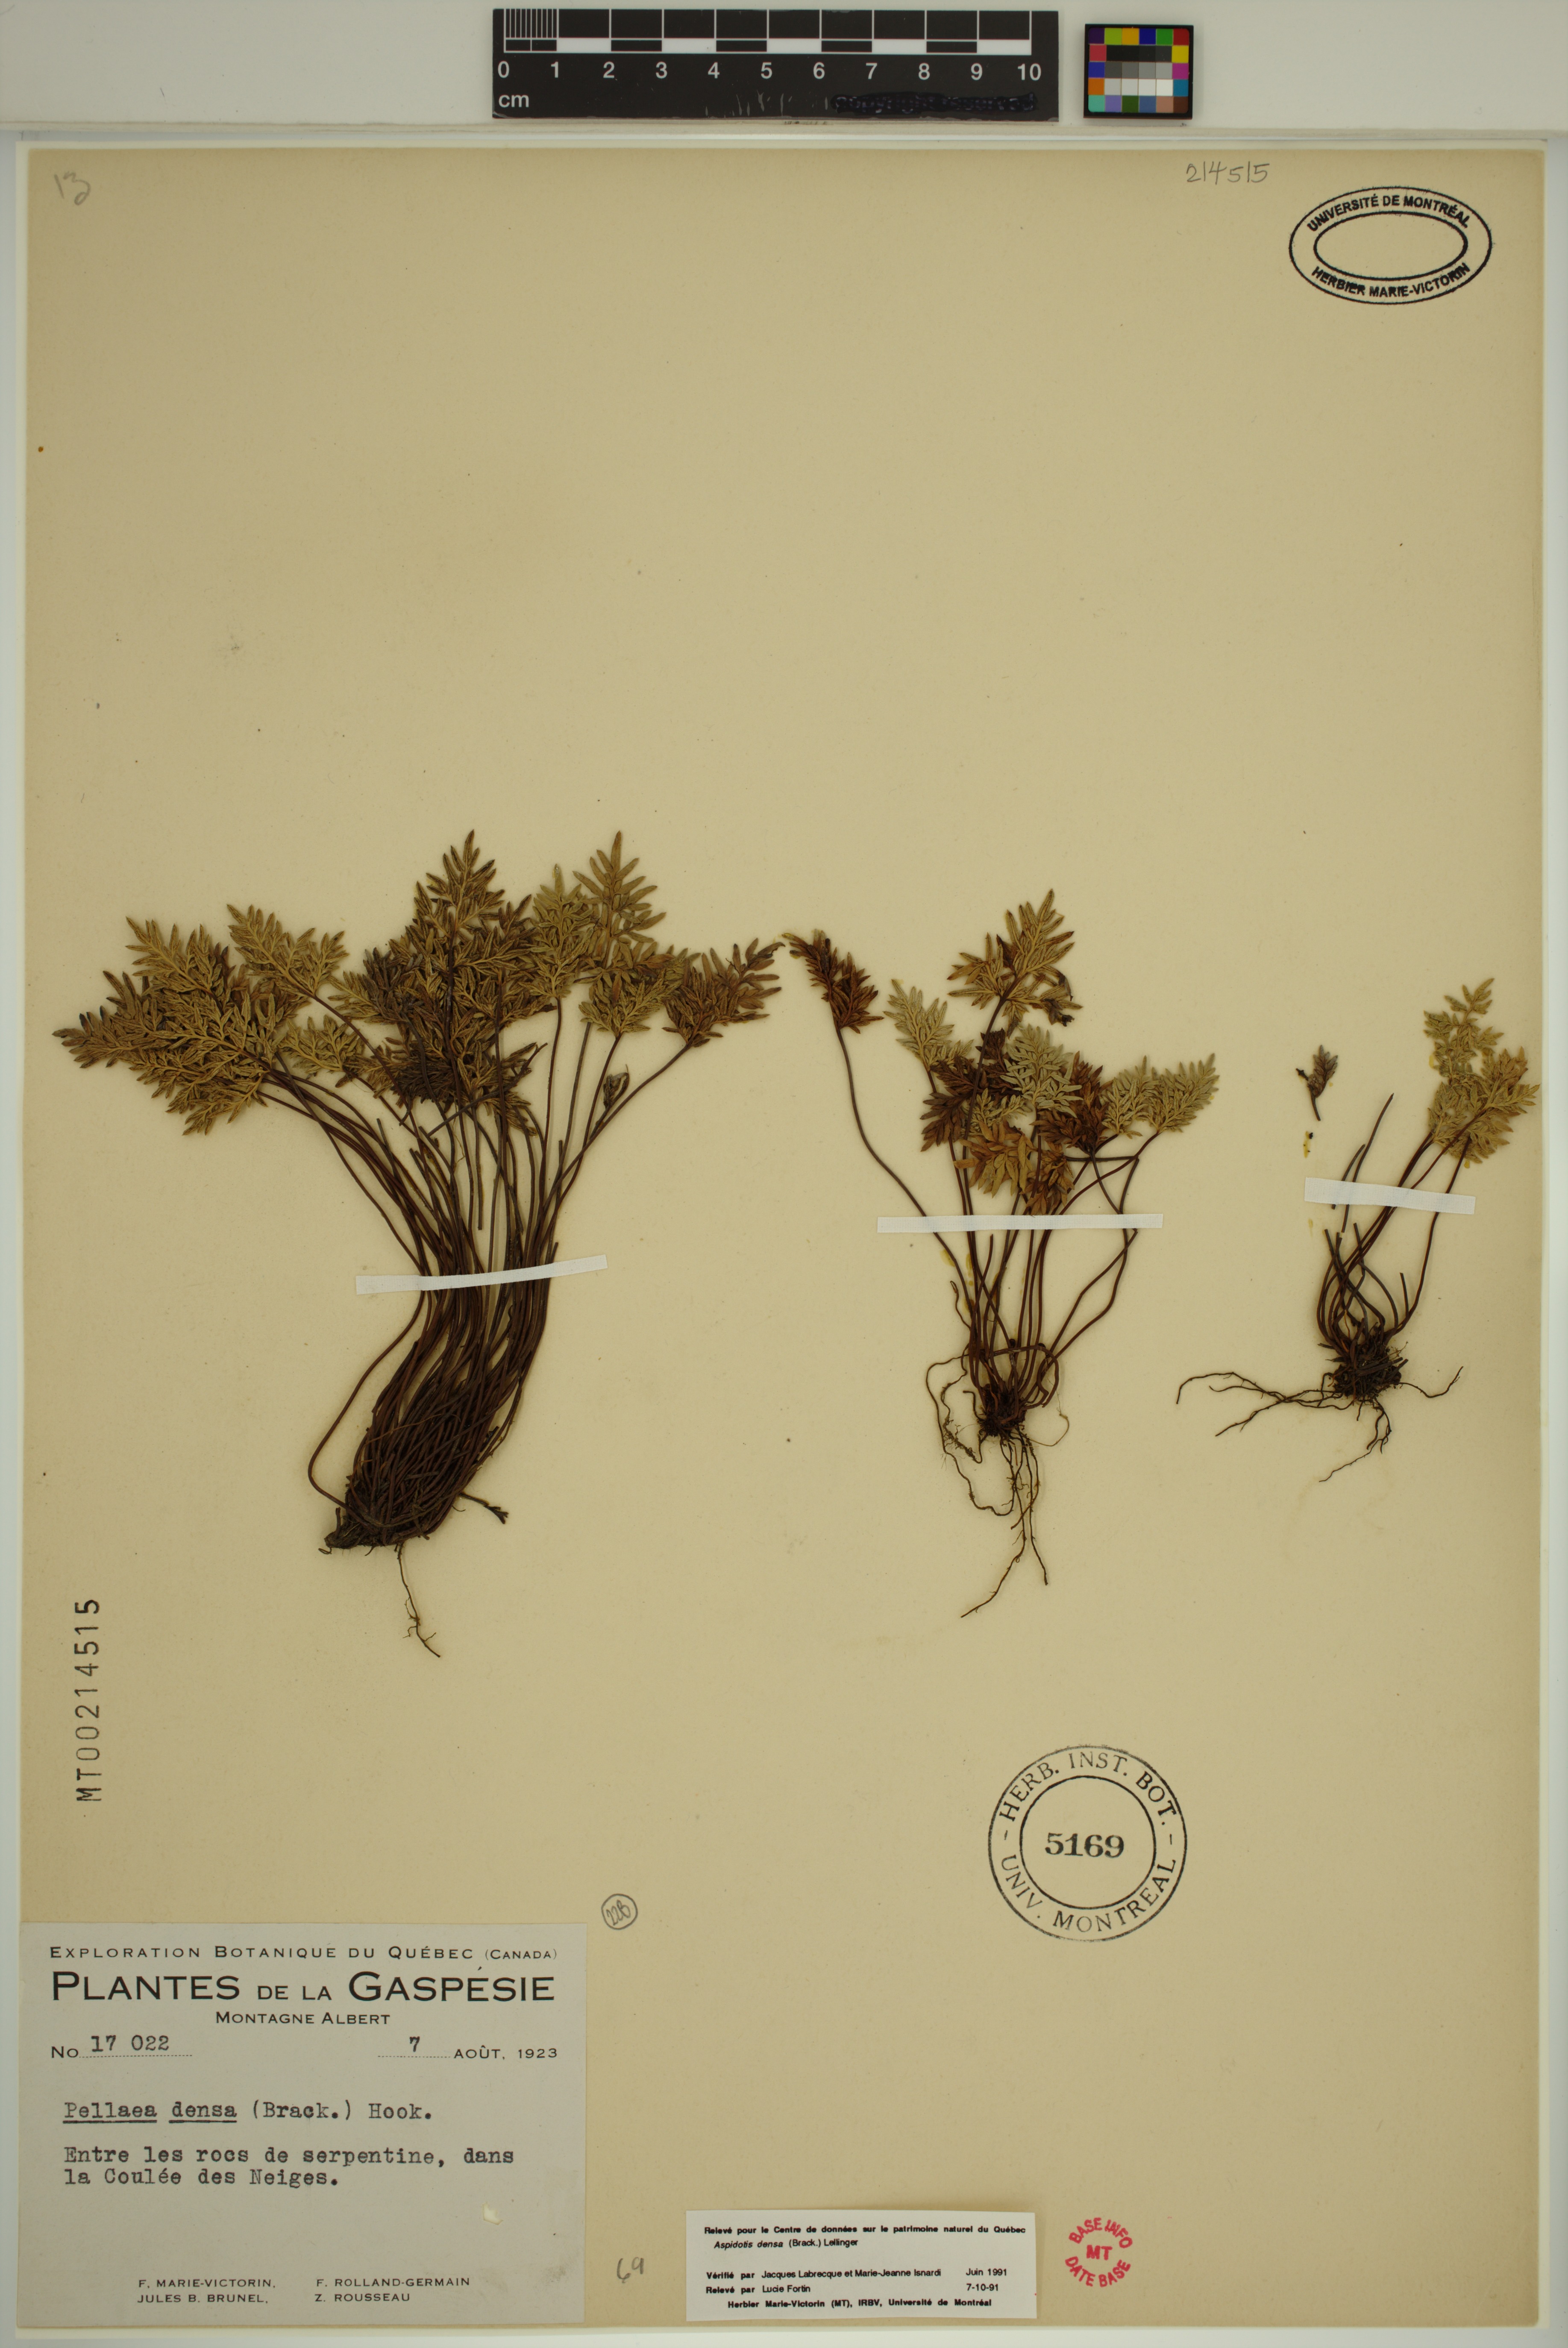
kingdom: Plantae
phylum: Tracheophyta
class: Polypodiopsida
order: Polypodiales
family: Pteridaceae
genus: Aspidotis
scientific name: Aspidotis densa
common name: Indian's dream
